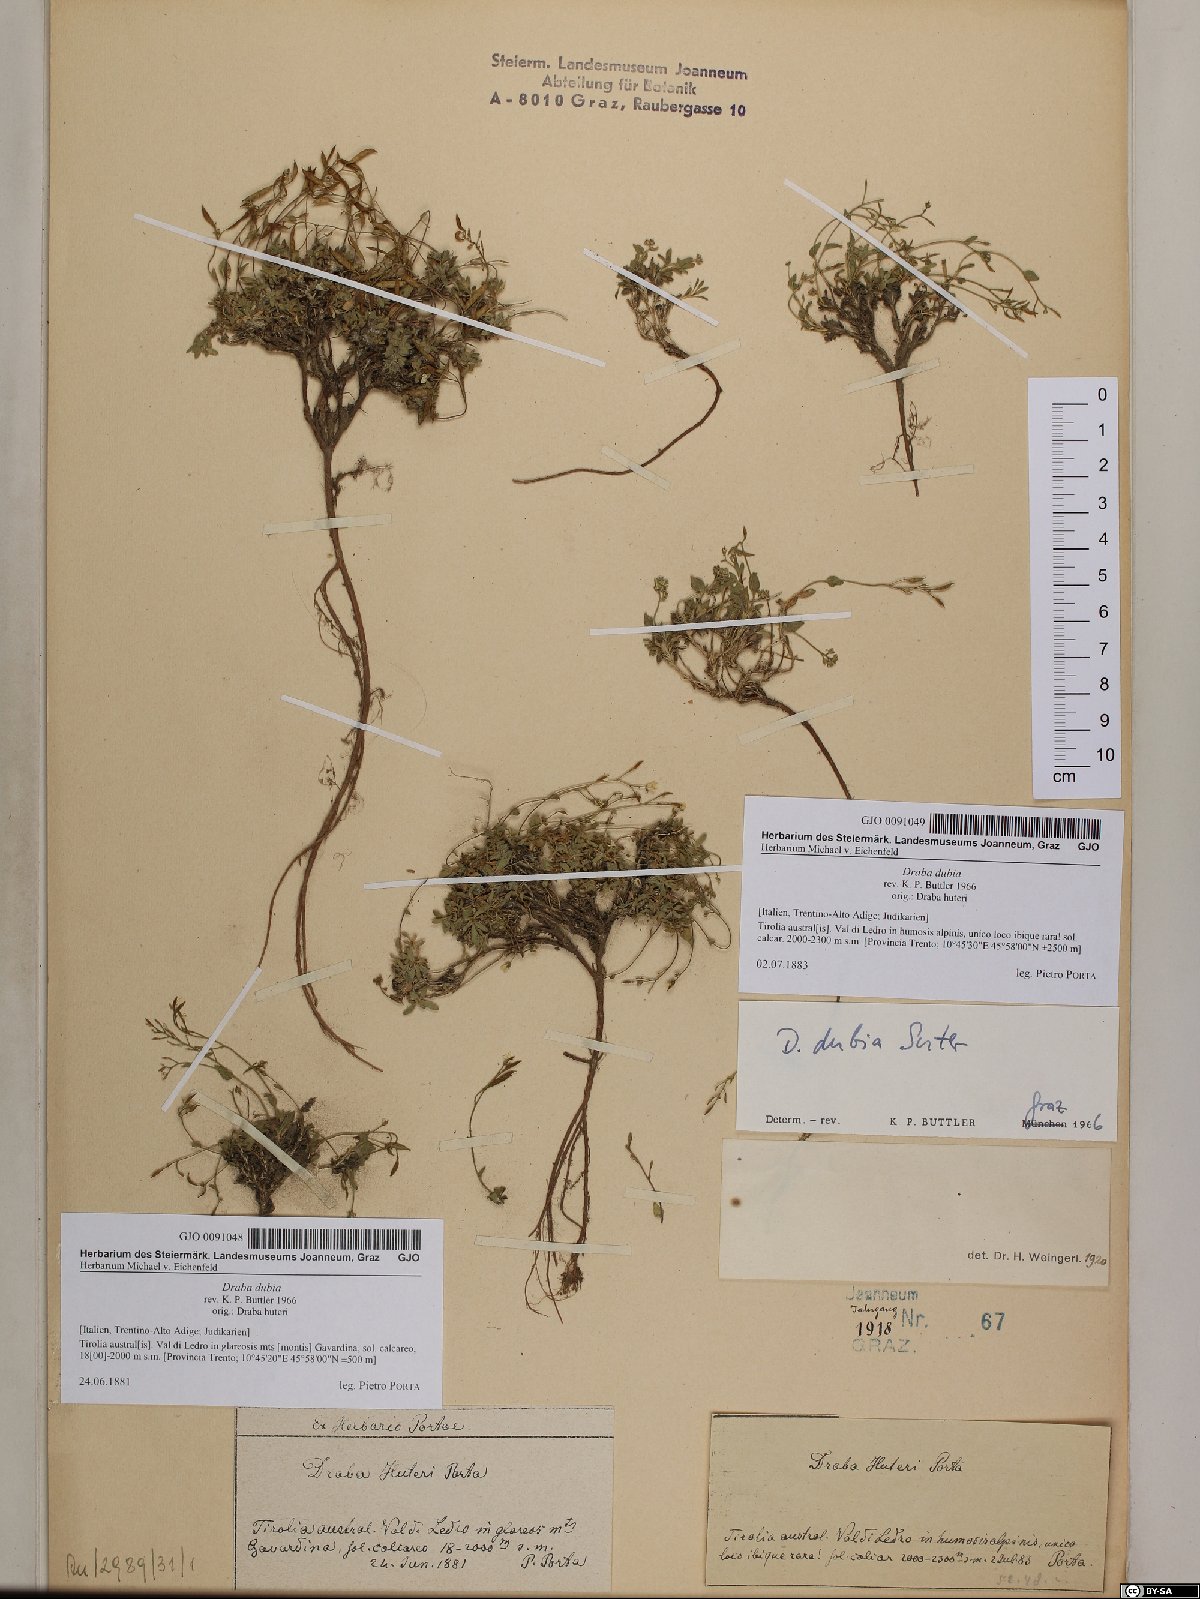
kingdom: Plantae
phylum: Tracheophyta
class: Magnoliopsida
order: Brassicales
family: Brassicaceae
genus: Draba
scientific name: Draba dubia
